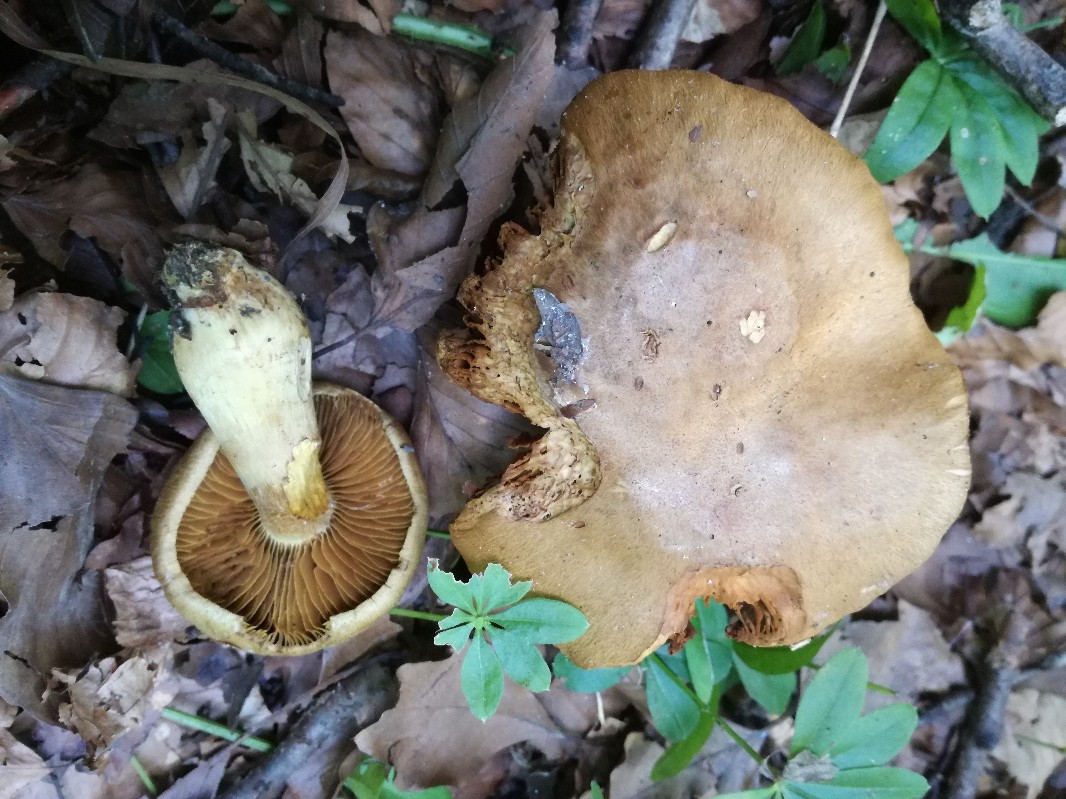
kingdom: Fungi
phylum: Basidiomycota
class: Agaricomycetes
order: Agaricales
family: Cortinariaceae
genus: Cortinarius
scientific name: Cortinarius cotoneus
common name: ulden slørhat
